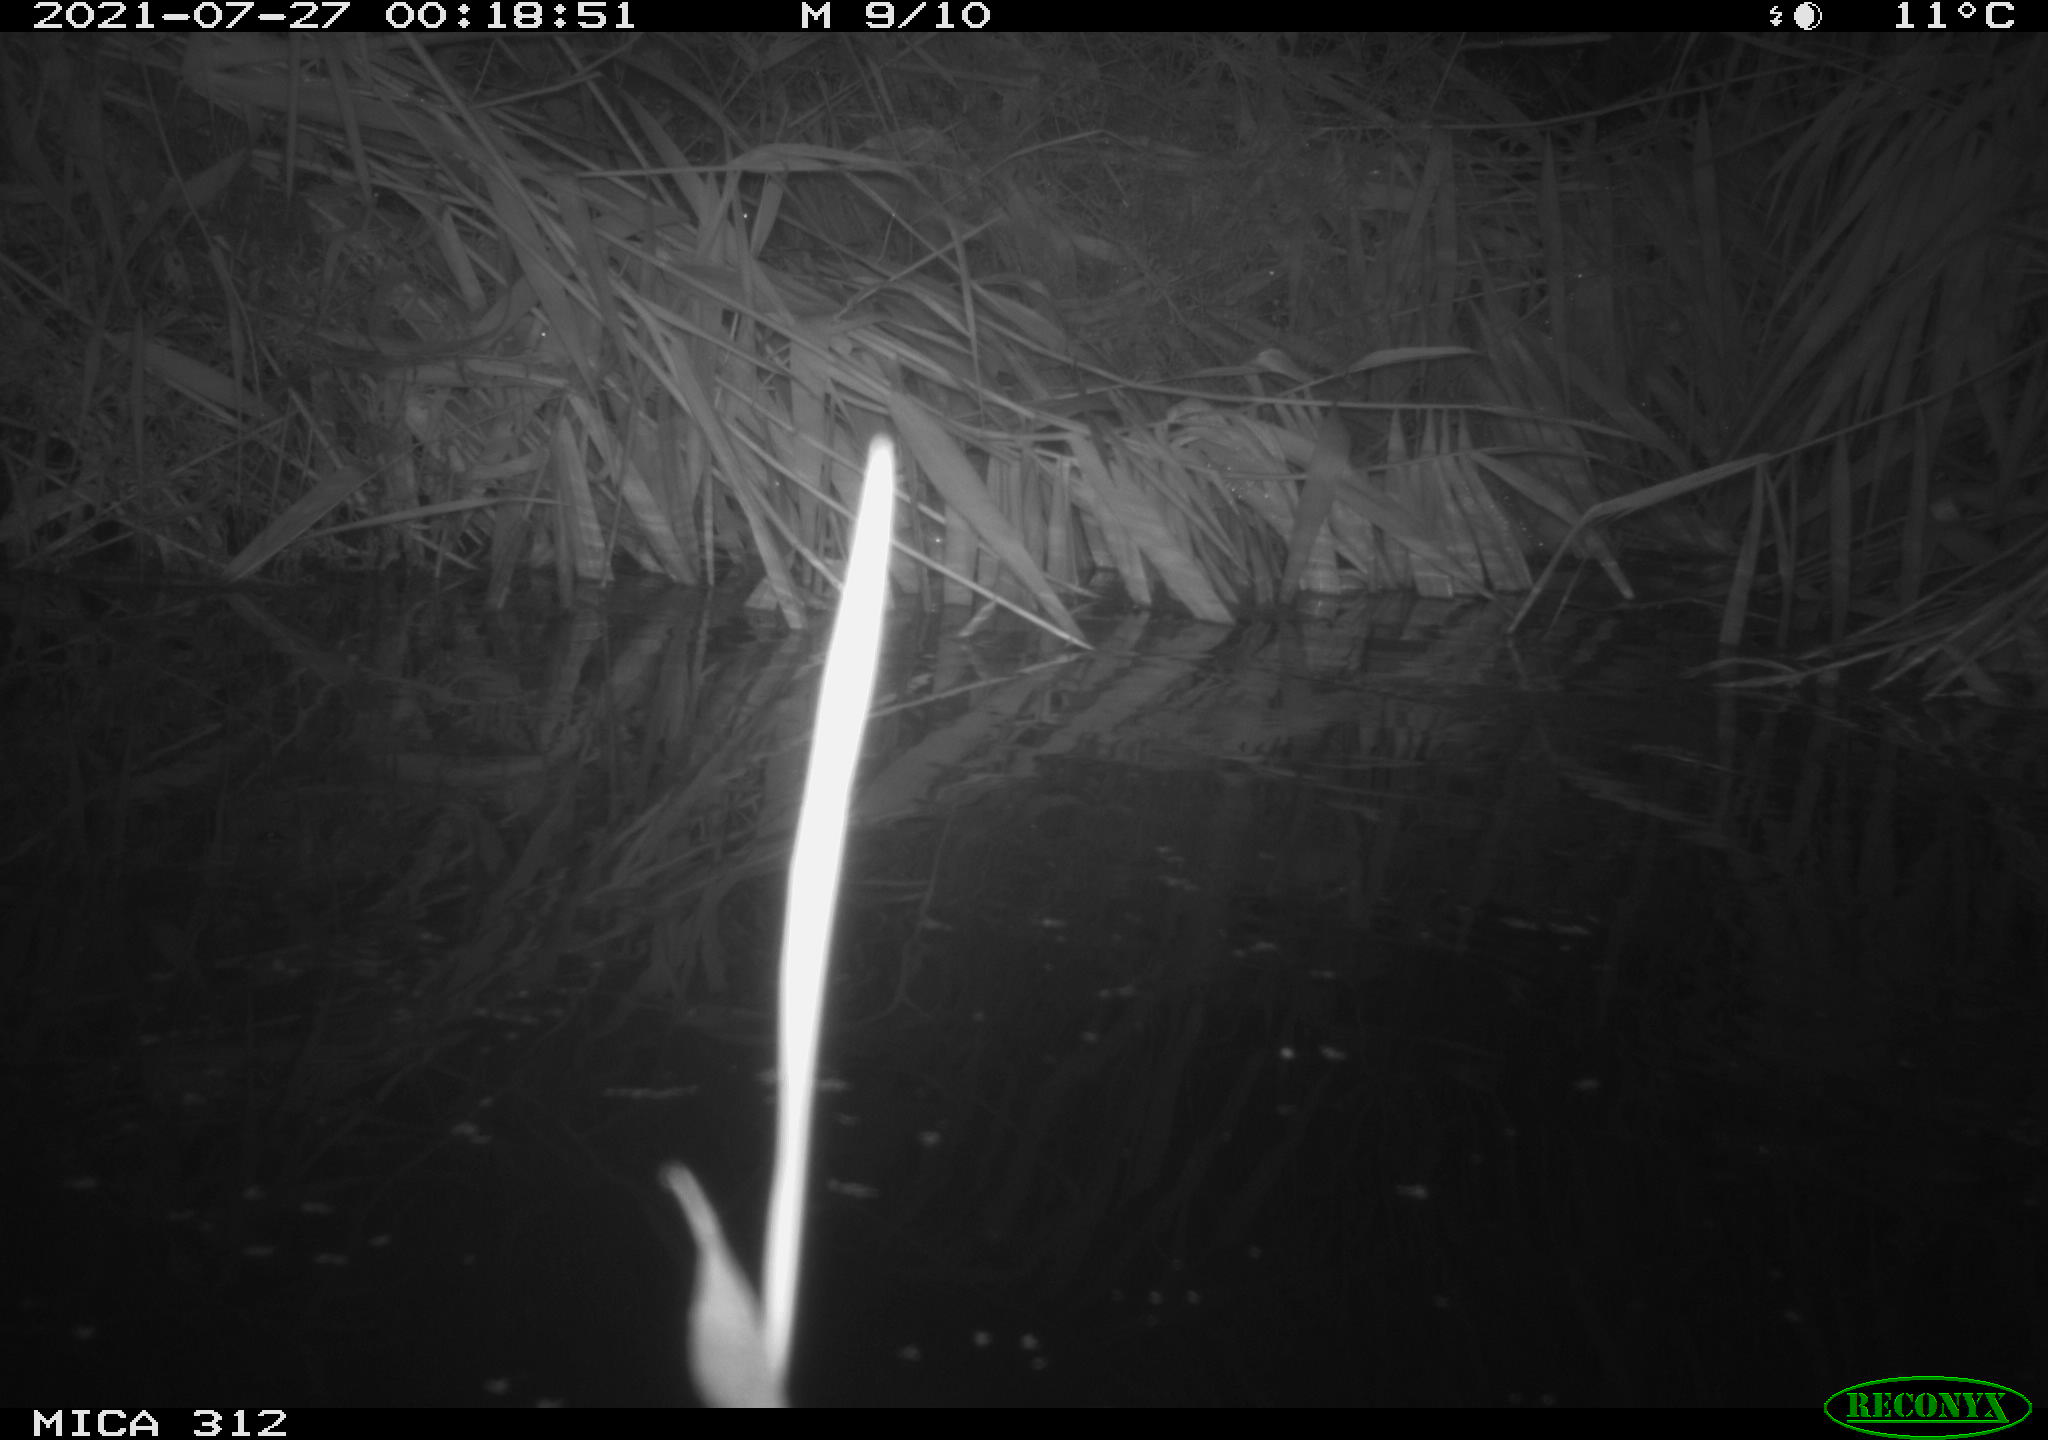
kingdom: Animalia
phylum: Chordata
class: Mammalia
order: Rodentia
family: Muridae
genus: Rattus
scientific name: Rattus norvegicus
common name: Brown rat
